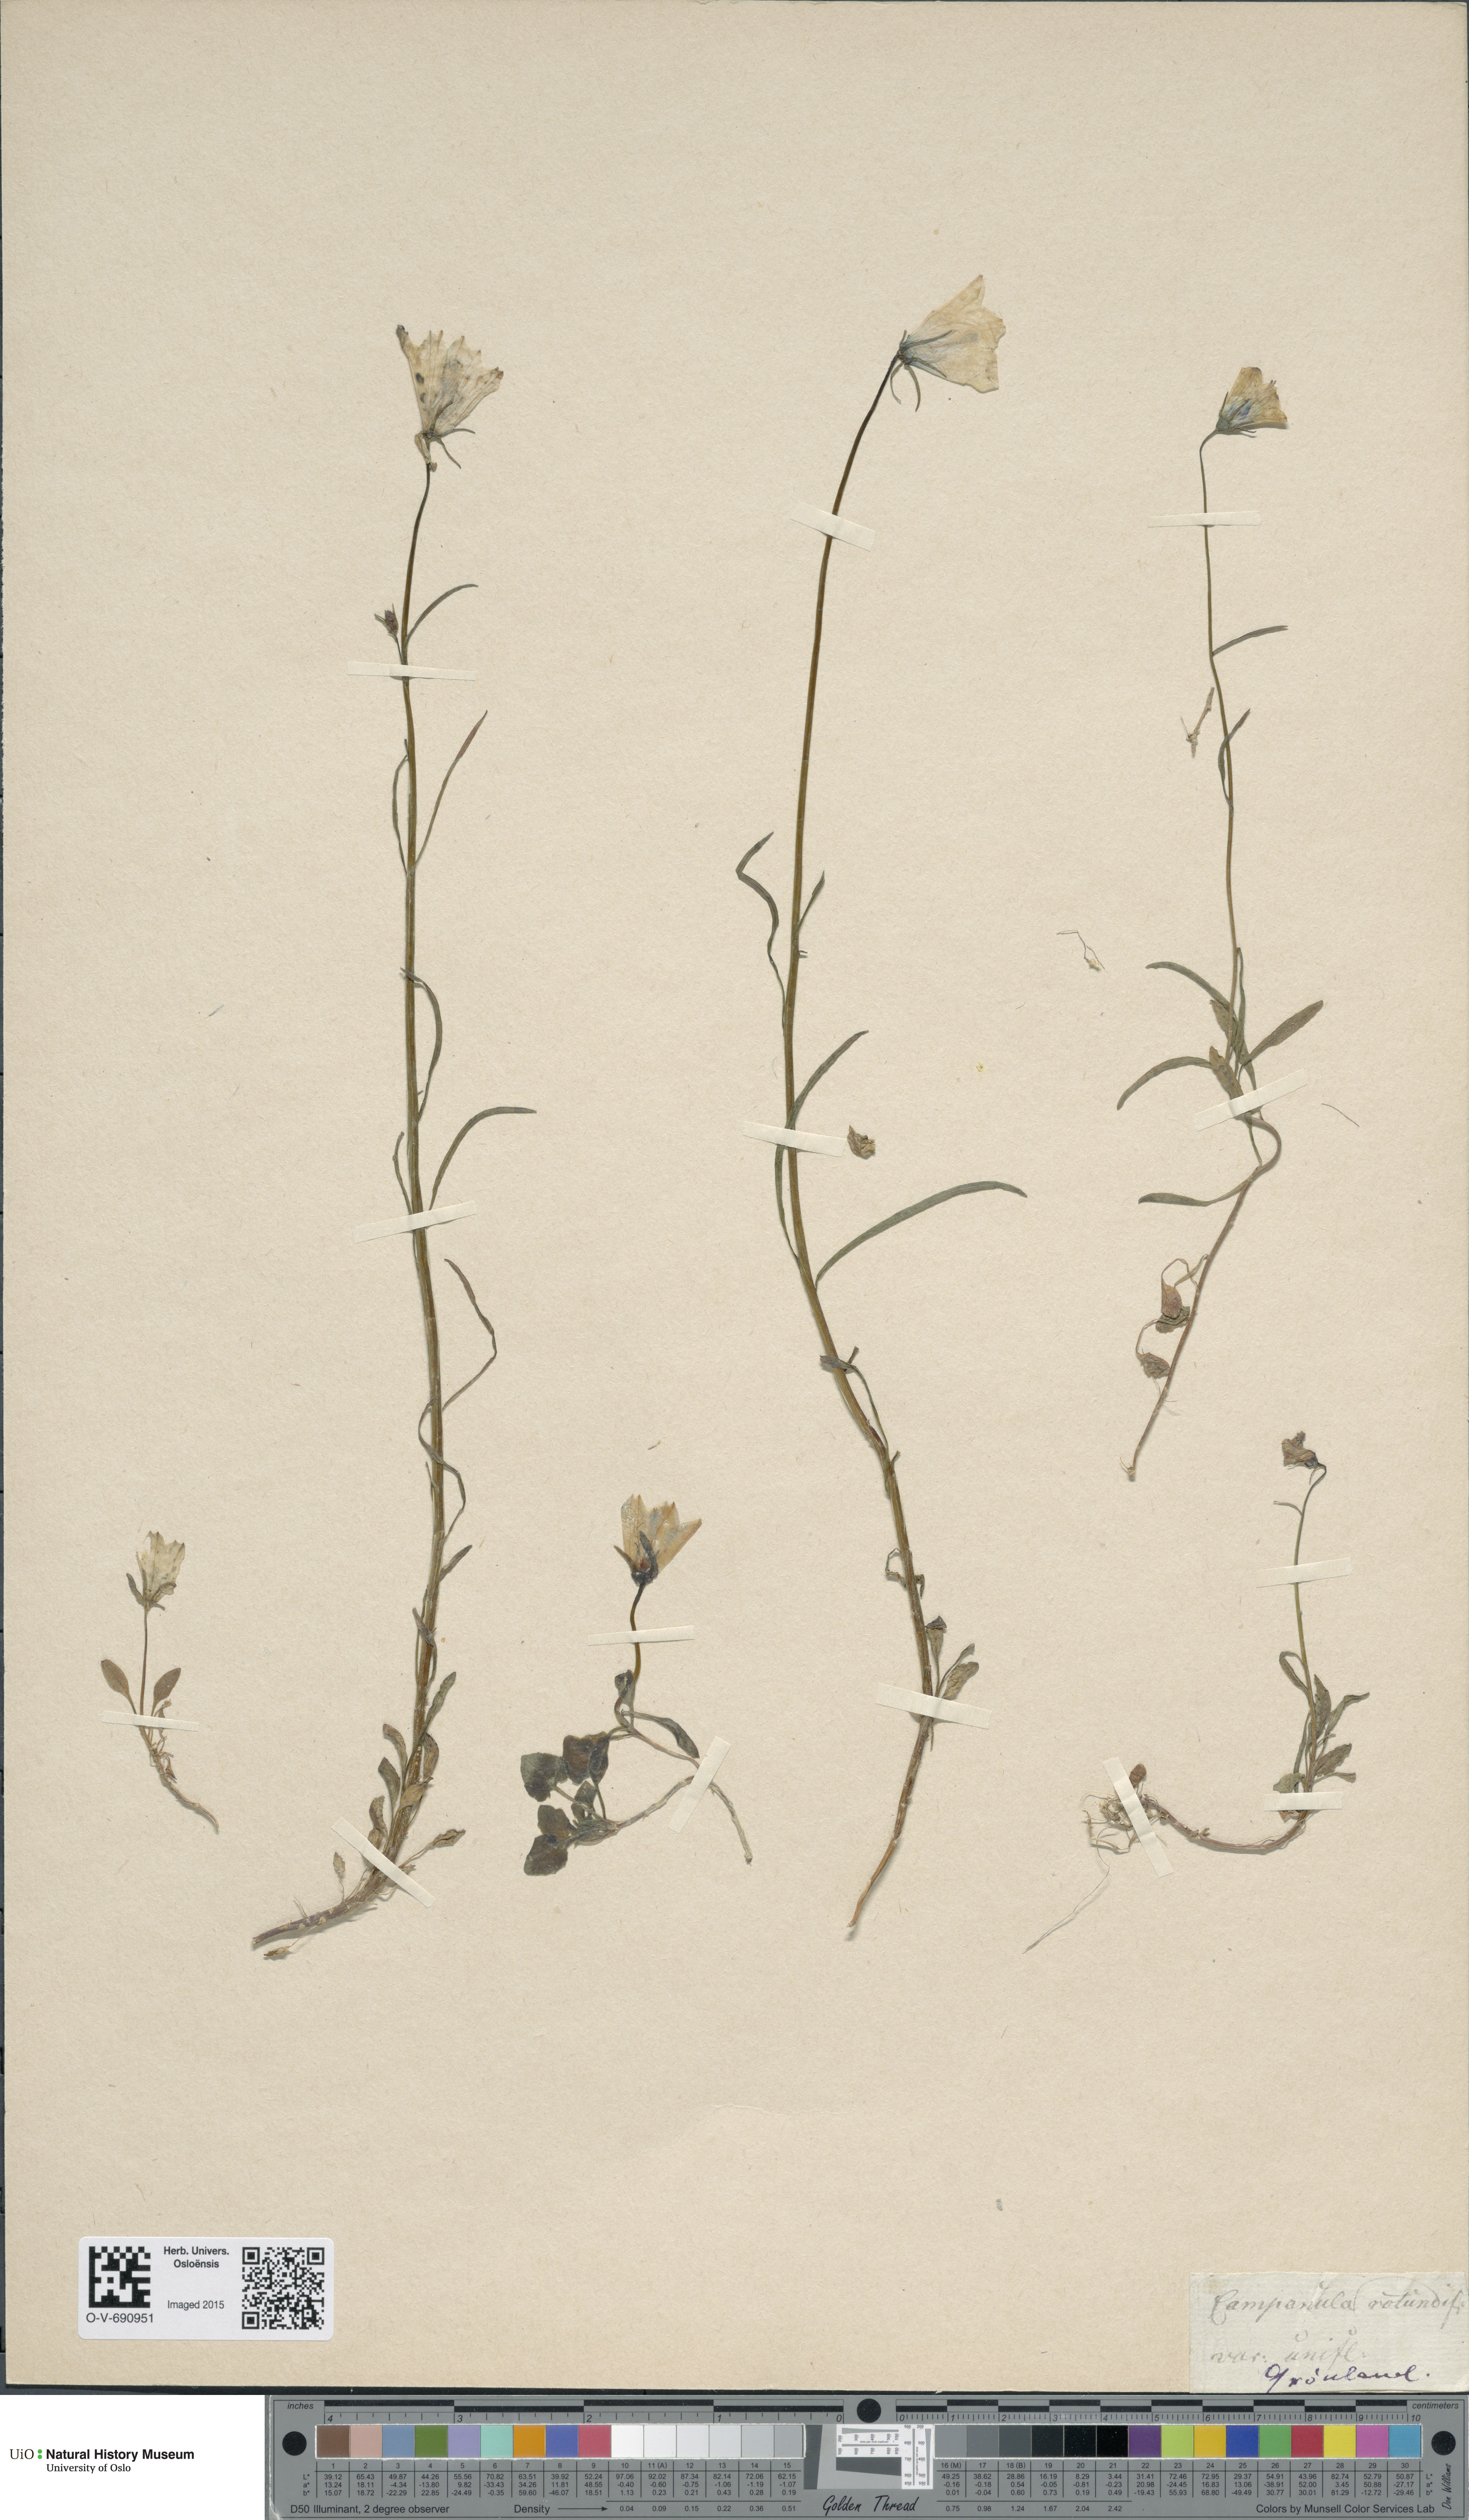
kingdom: Plantae
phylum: Tracheophyta
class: Magnoliopsida
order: Asterales
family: Campanulaceae
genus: Campanula
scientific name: Campanula rotundifolia
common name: Harebell
